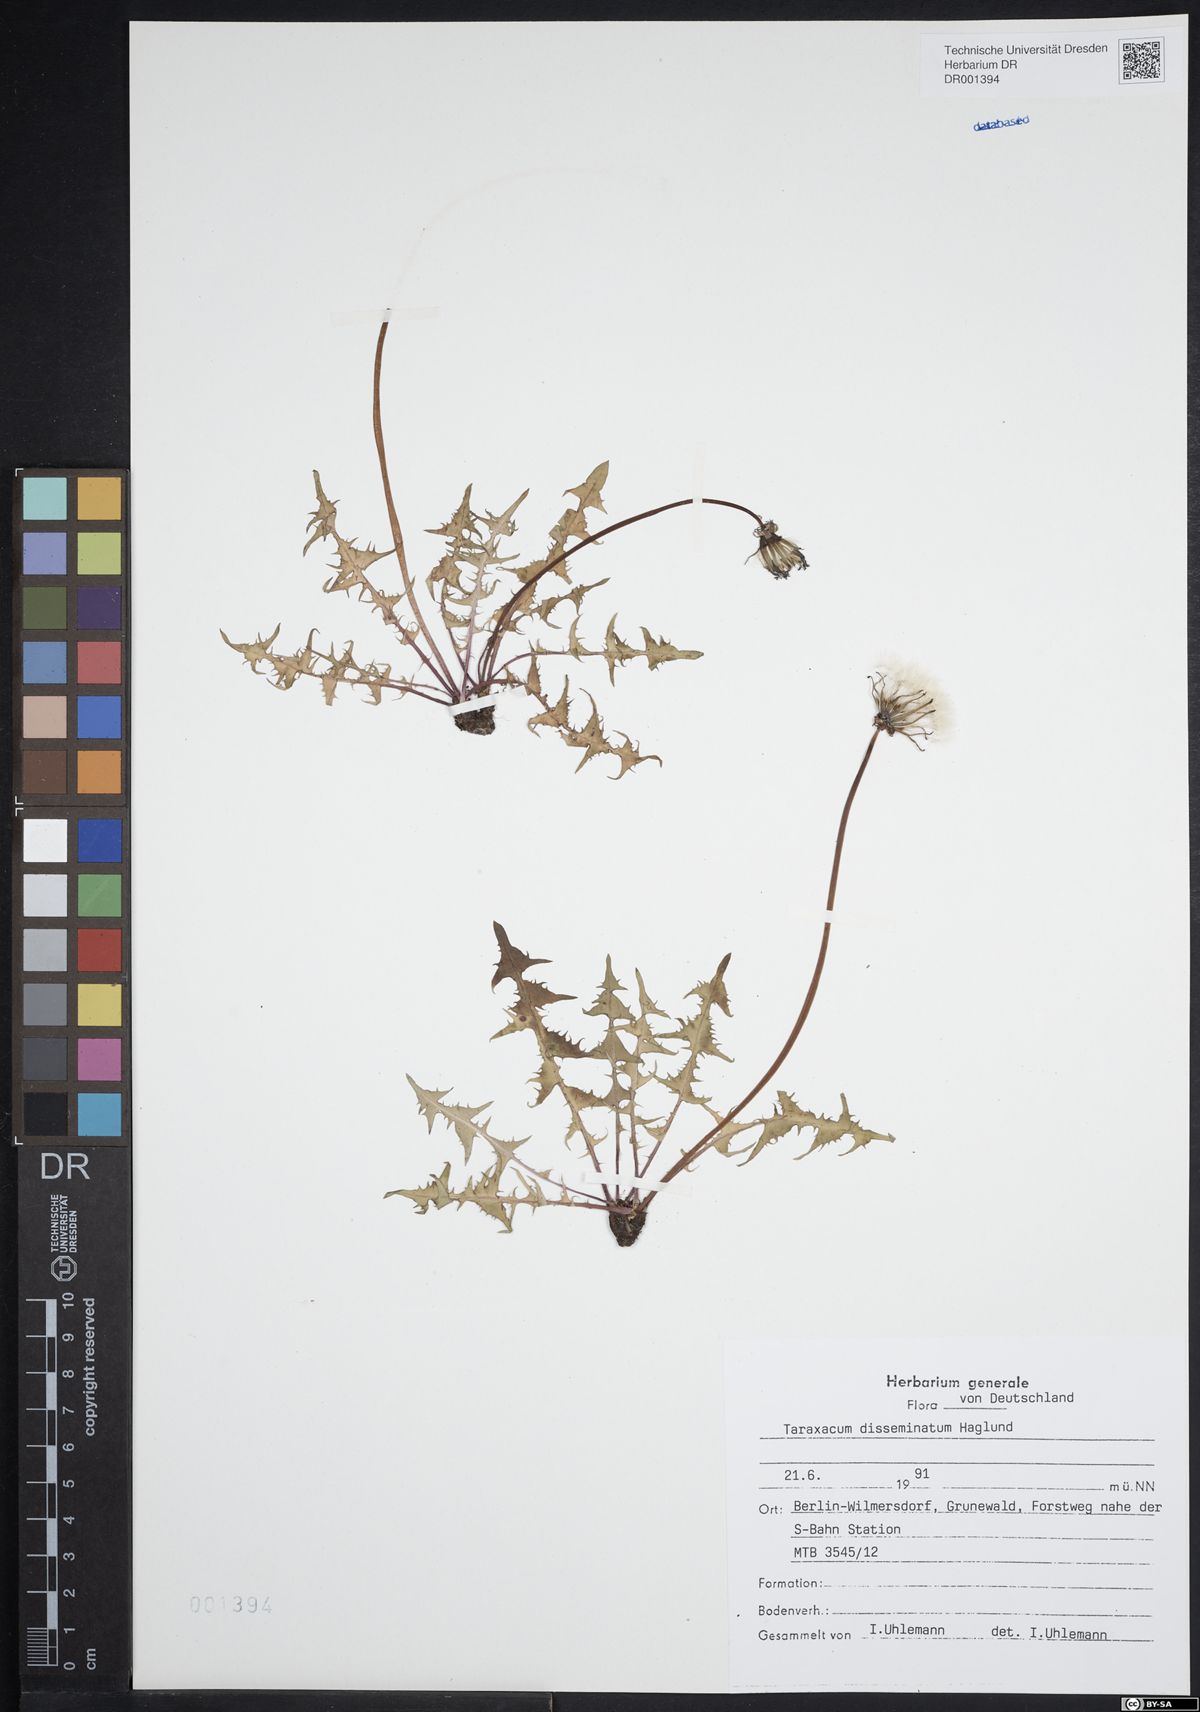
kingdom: Plantae
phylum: Tracheophyta
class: Magnoliopsida
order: Asterales
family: Asteraceae
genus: Taraxacum
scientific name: Taraxacum disseminatum
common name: Golden-fruited dandelion
